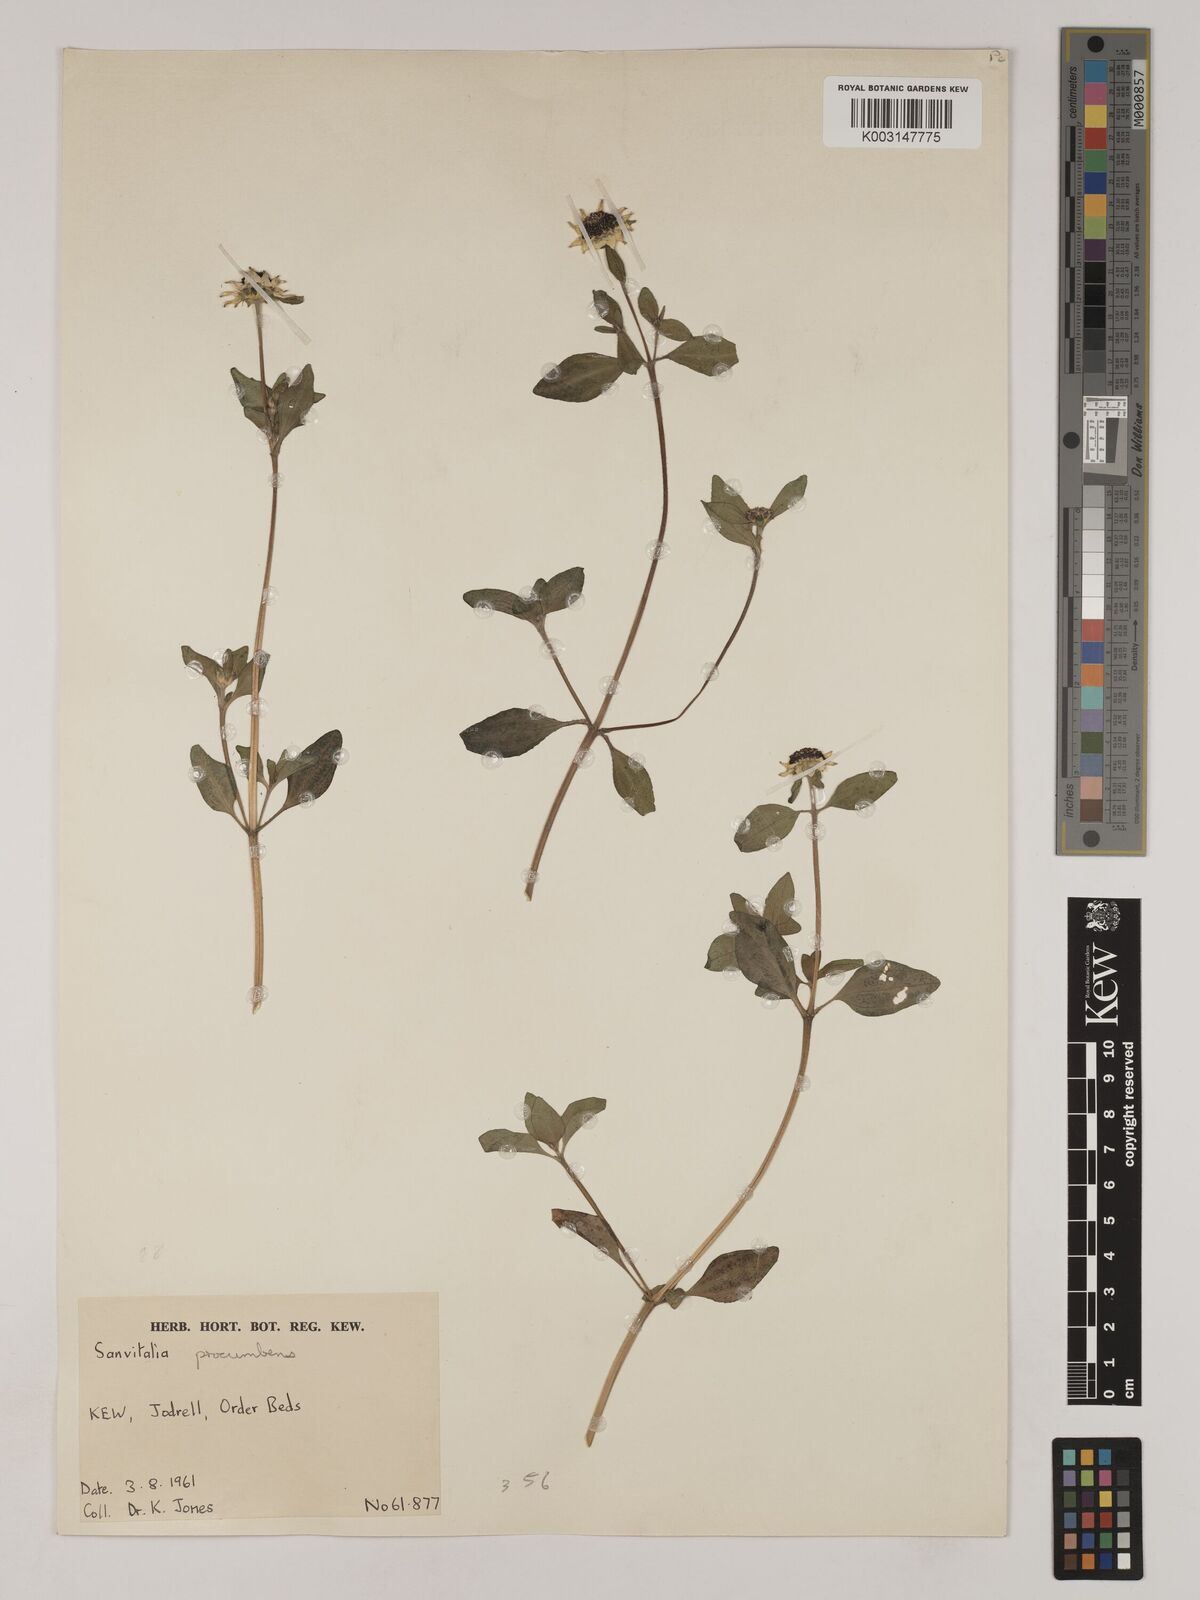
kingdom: Plantae
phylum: Tracheophyta
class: Magnoliopsida
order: Asterales
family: Asteraceae
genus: Sanvitalia
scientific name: Sanvitalia procumbens
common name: Mexican creeping zinnia
